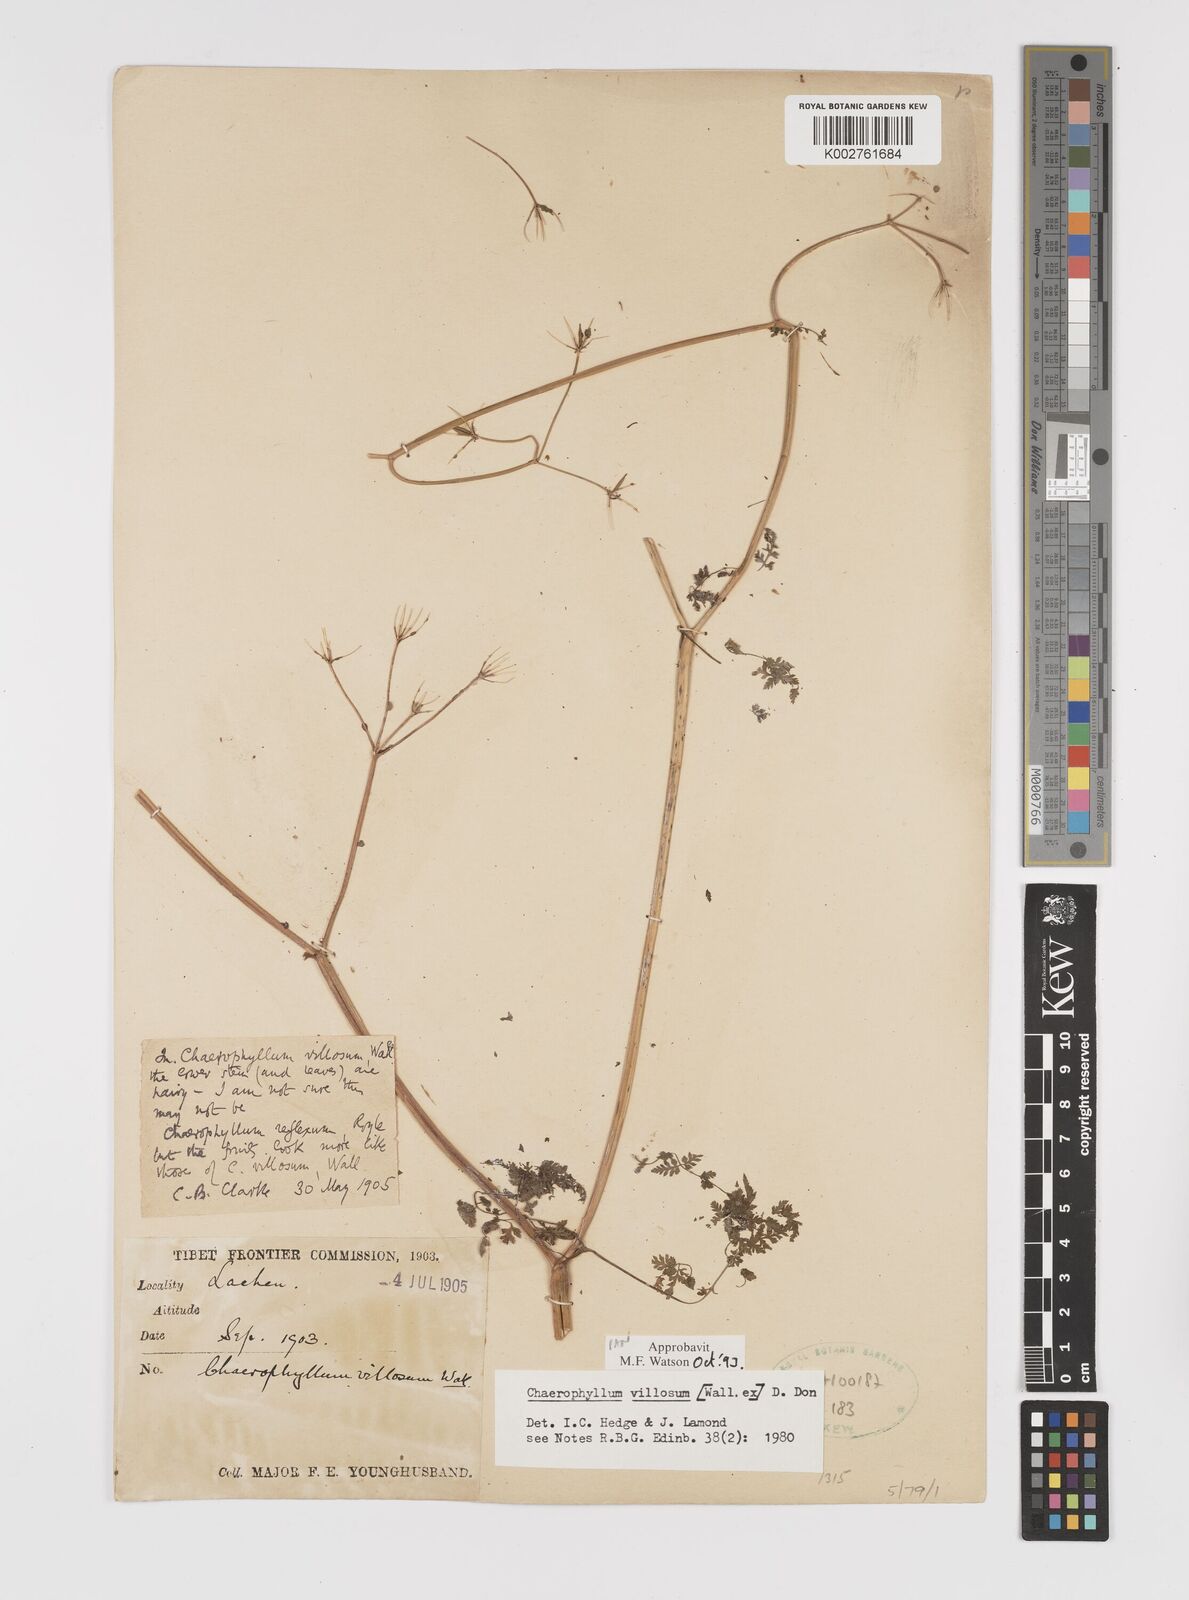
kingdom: Plantae
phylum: Tracheophyta
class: Magnoliopsida
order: Apiales
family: Apiaceae
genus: Chaerophyllum
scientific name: Chaerophyllum villosum
